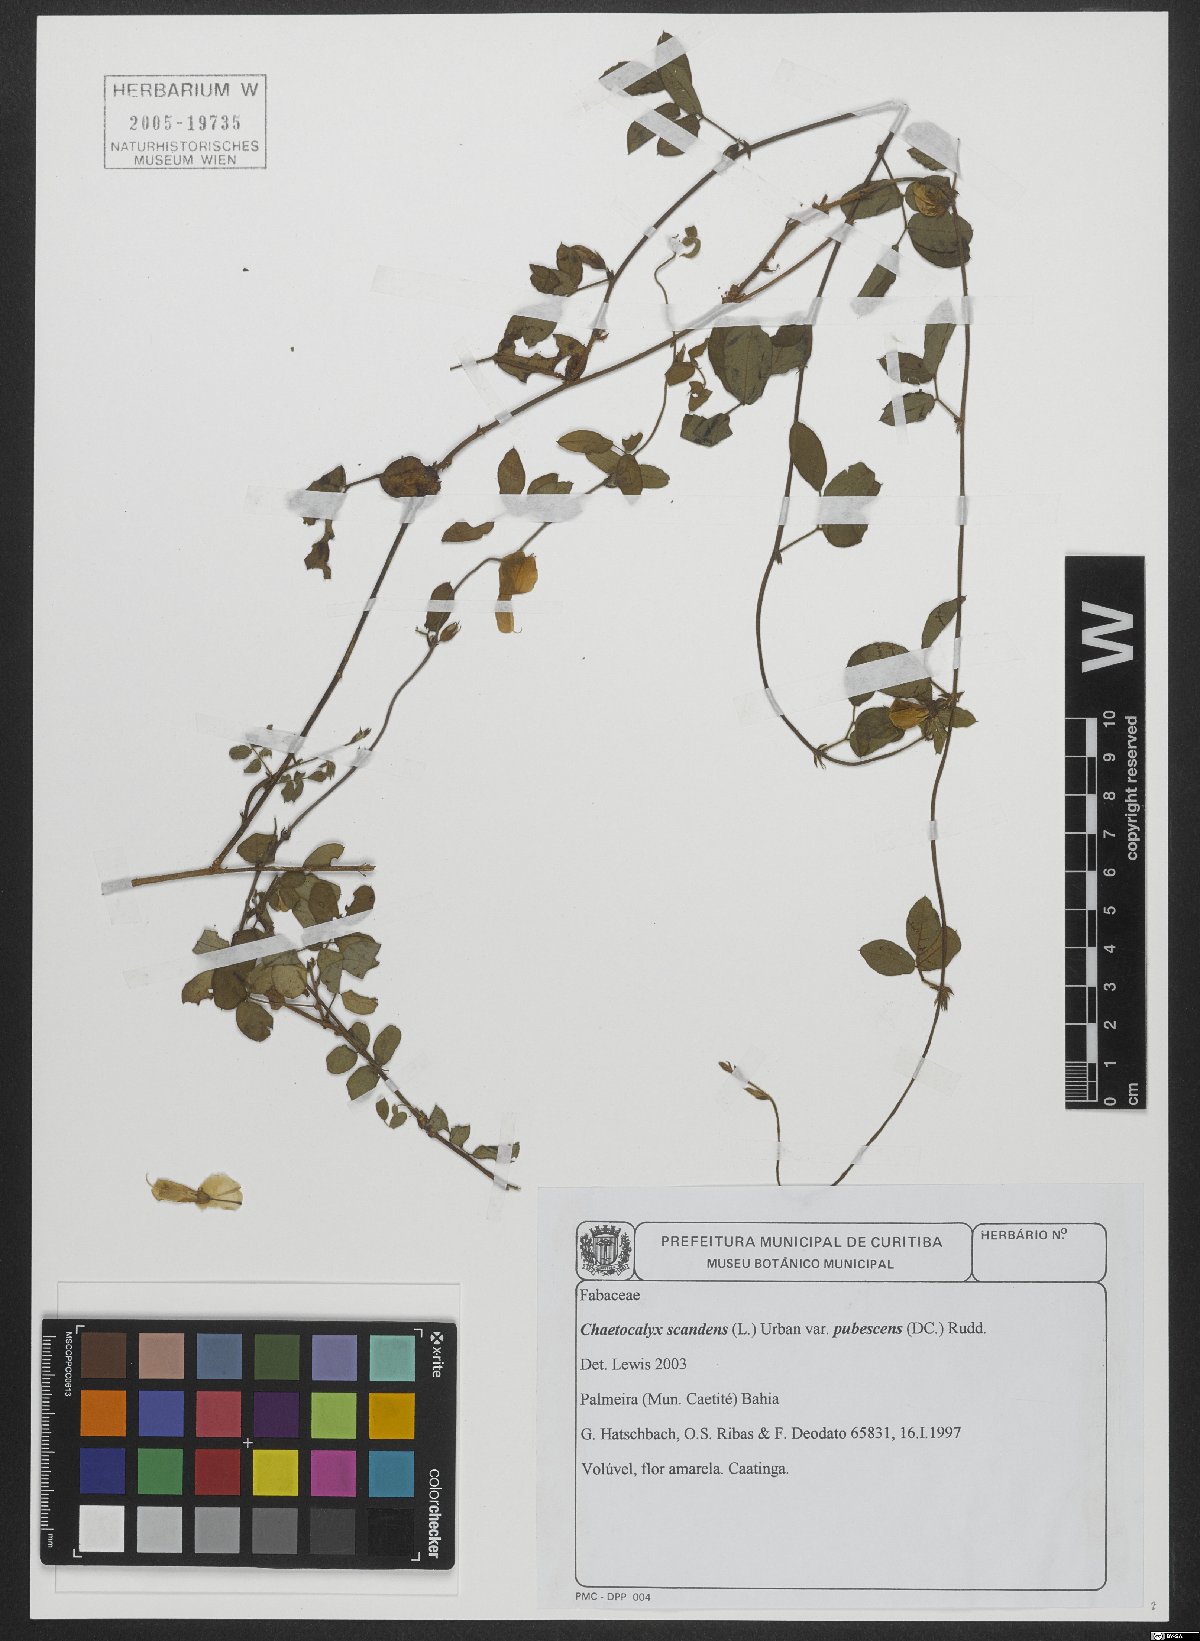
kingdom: Plantae
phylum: Tracheophyta
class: Magnoliopsida
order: Fabales
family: Fabaceae
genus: Nissolia
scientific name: Nissolia vincentina
